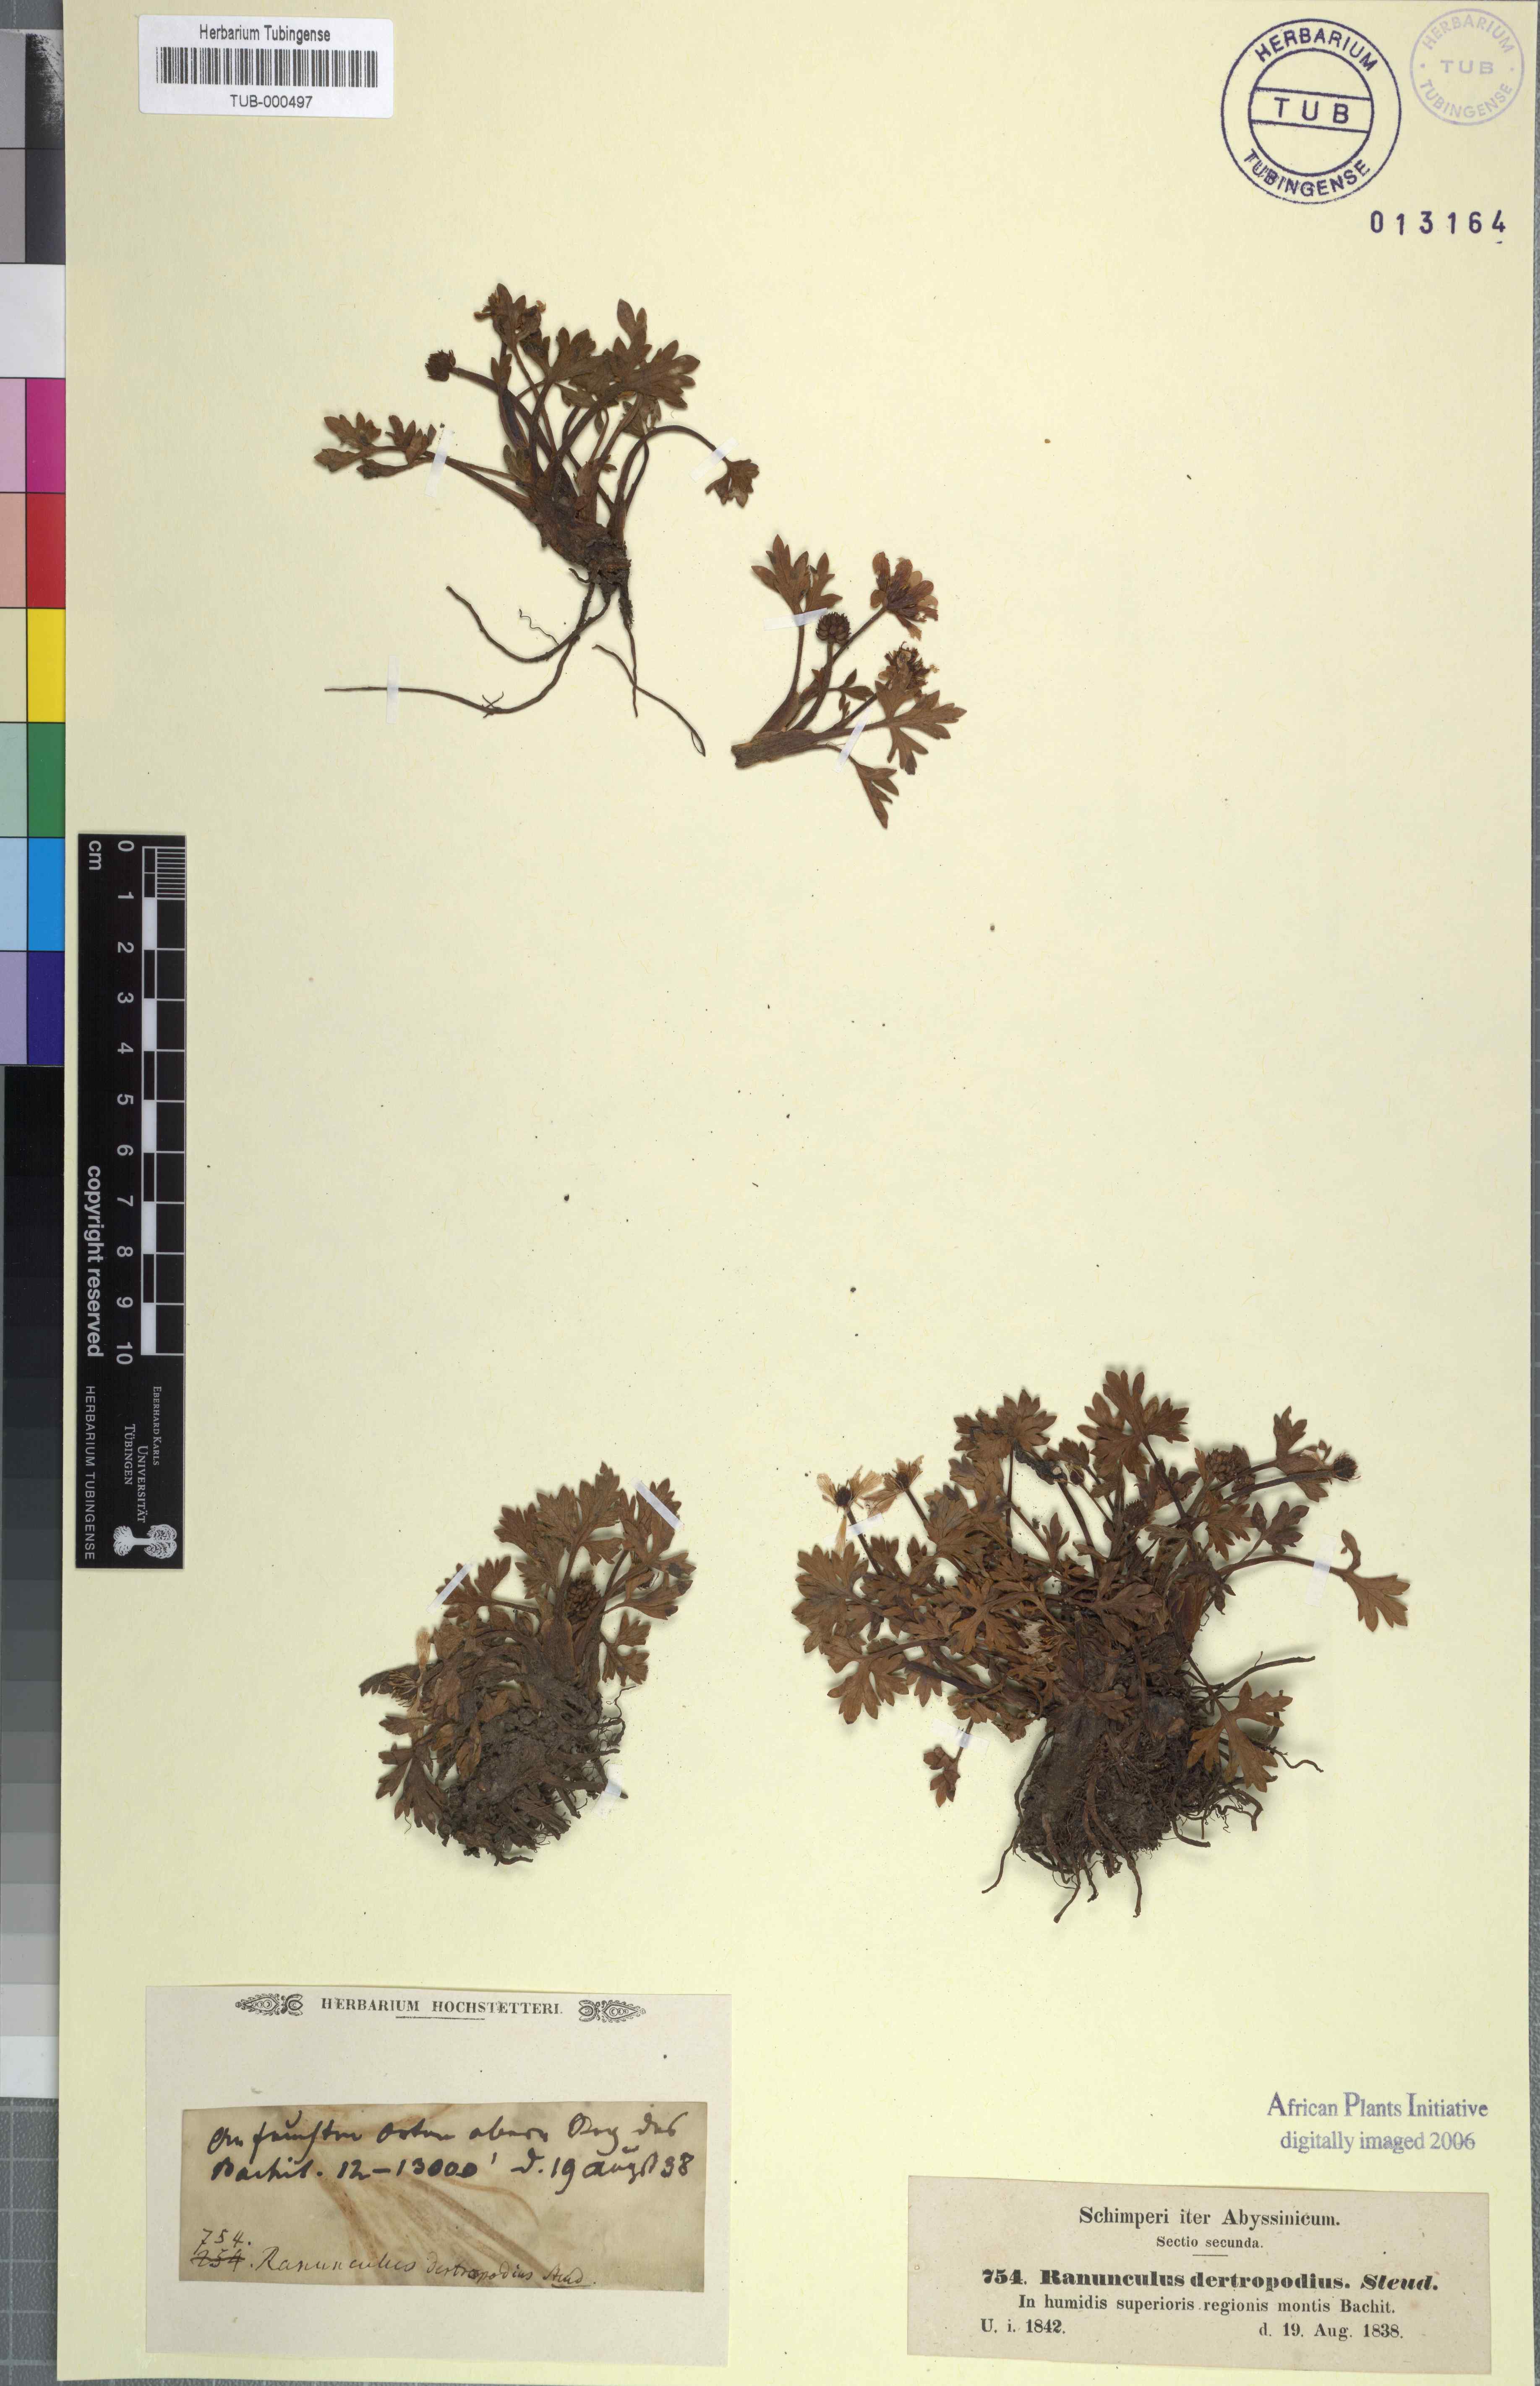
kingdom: Plantae
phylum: Tracheophyta
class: Magnoliopsida
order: Ranunculales
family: Ranunculaceae
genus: Ranunculus
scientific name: Ranunculus tembensis
